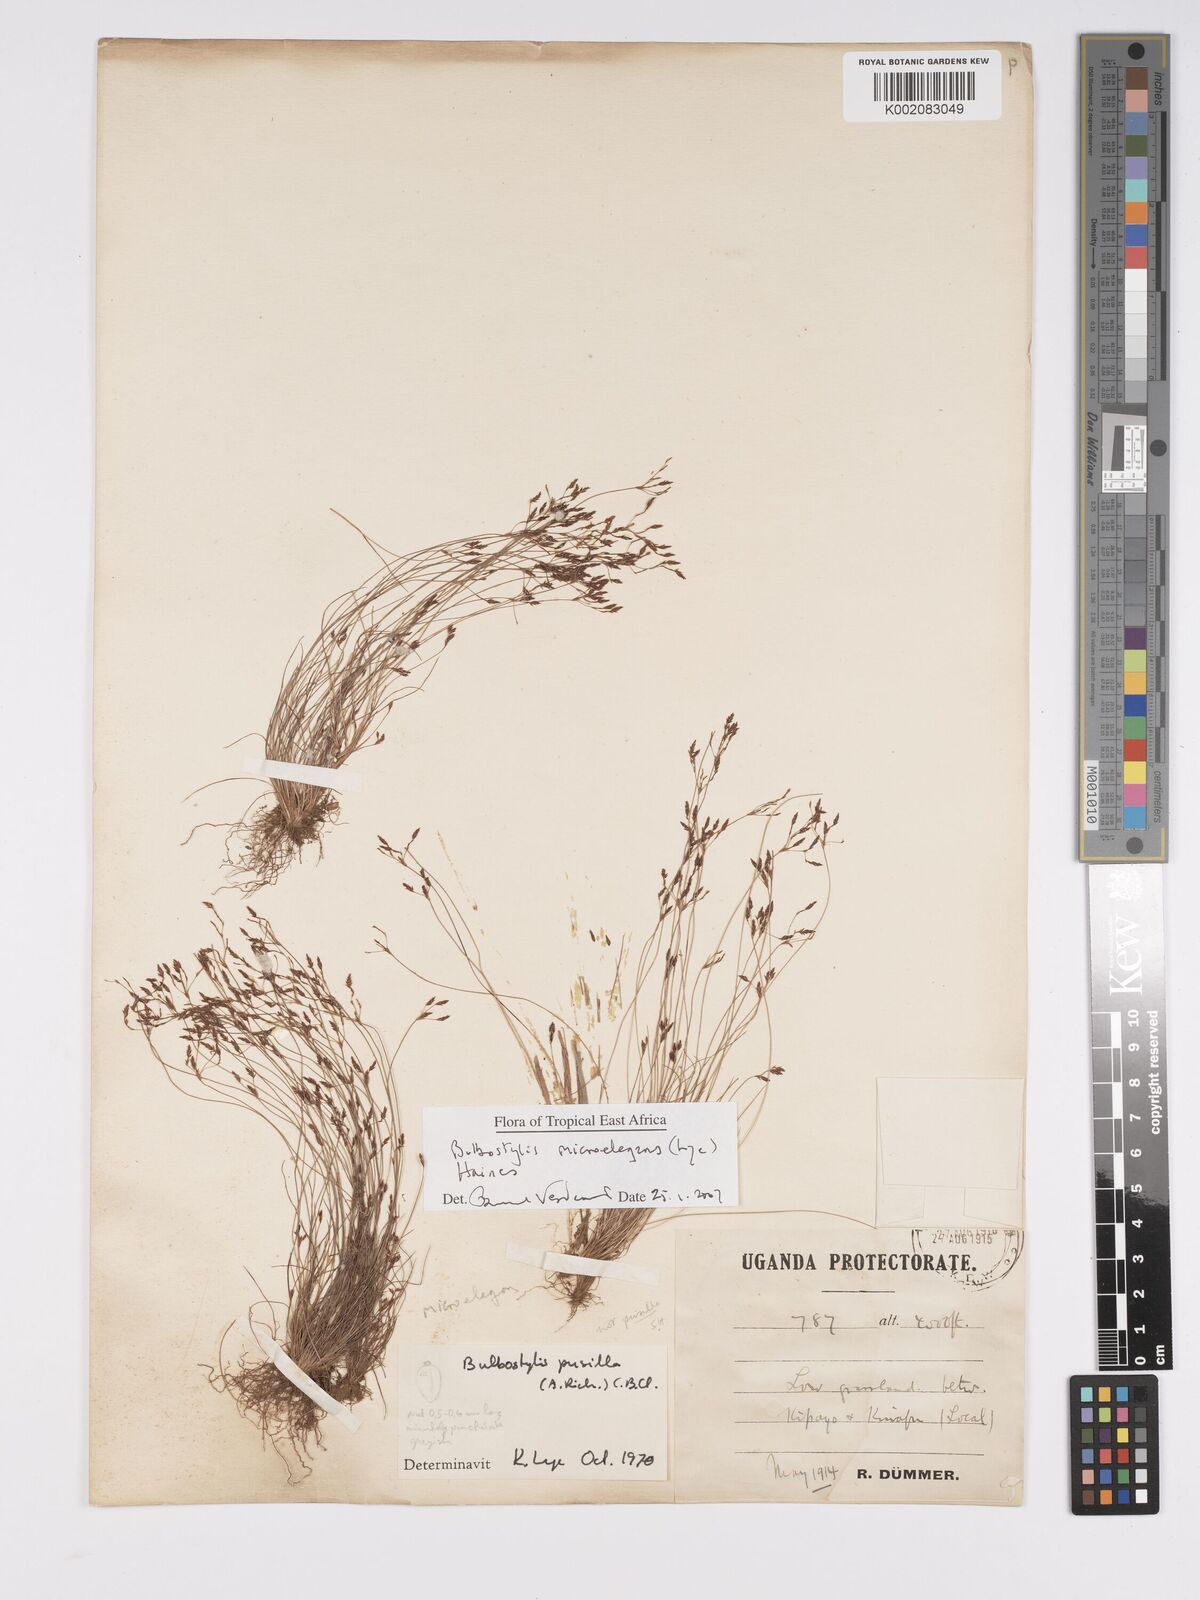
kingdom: Plantae
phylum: Tracheophyta
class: Liliopsida
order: Poales
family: Cyperaceae
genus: Bulbostylis
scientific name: Bulbostylis microelegans
